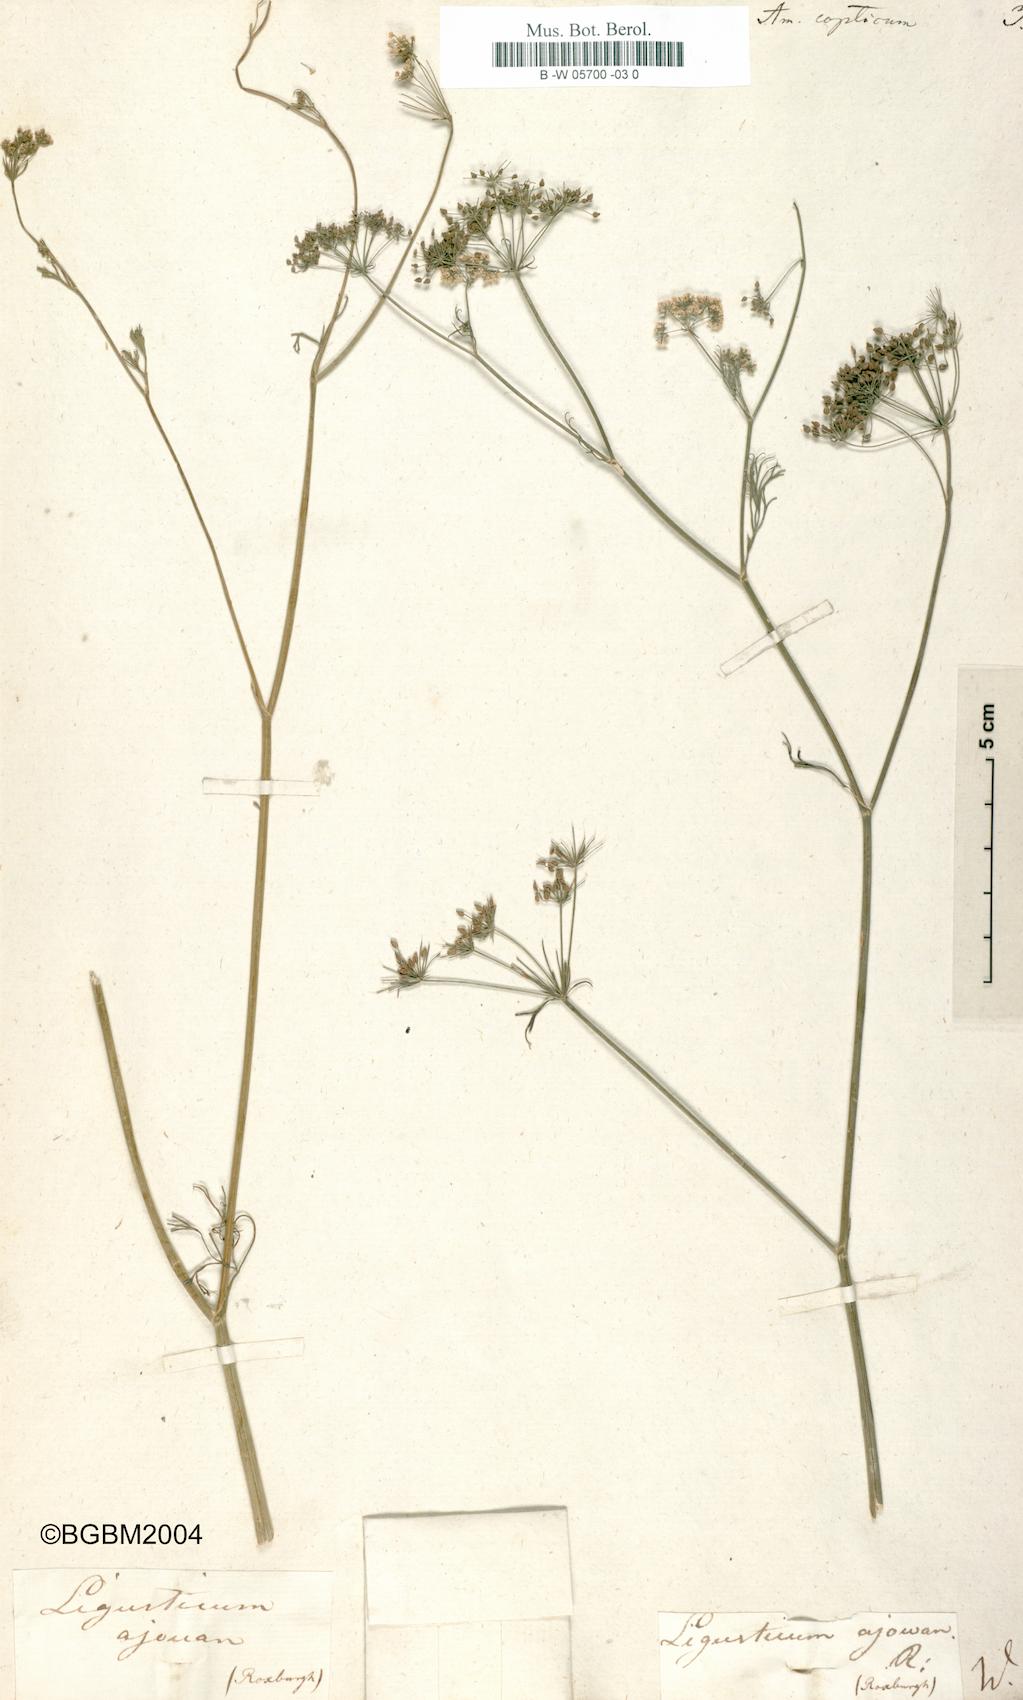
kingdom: Plantae
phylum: Tracheophyta
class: Magnoliopsida
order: Apiales
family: Apiaceae
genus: Trachyspermum
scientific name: Trachyspermum ammi
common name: Ajowan
